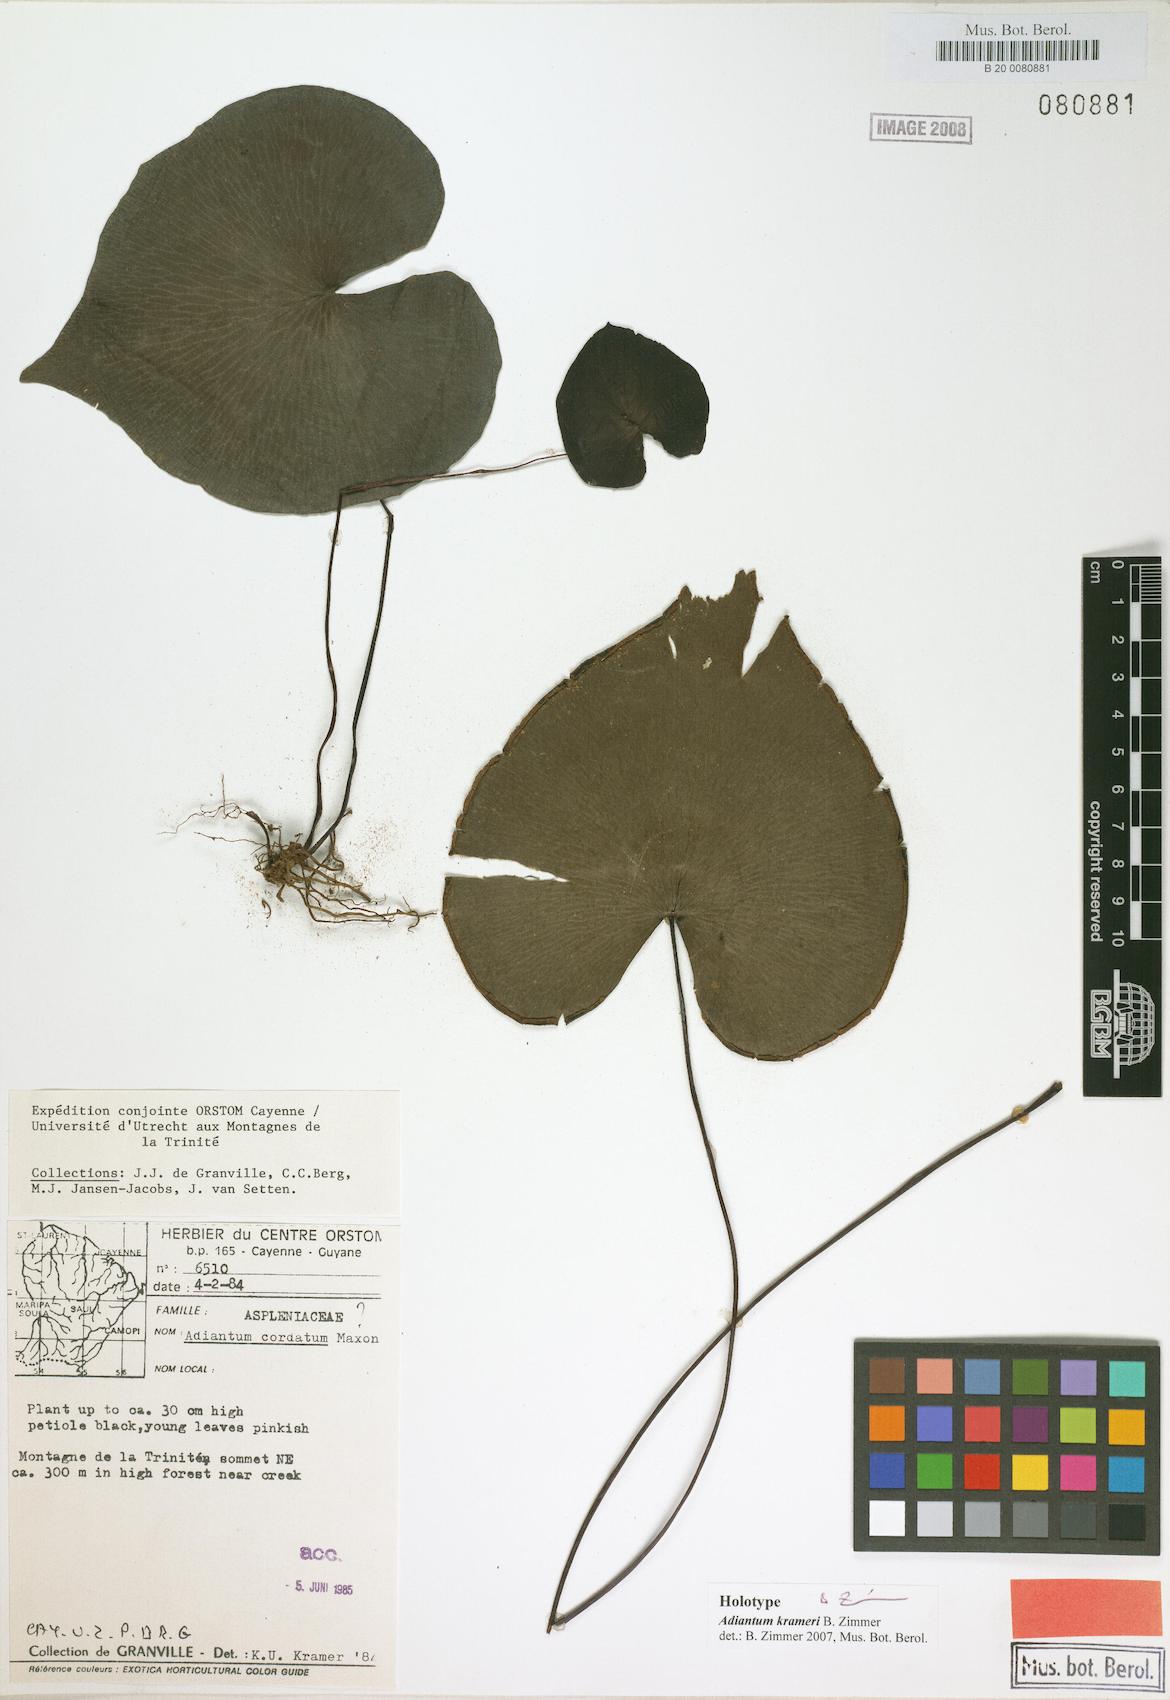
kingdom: Plantae
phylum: Tracheophyta
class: Polypodiopsida
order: Polypodiales
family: Pteridaceae
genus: Adiantum
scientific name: Adiantum krameri
